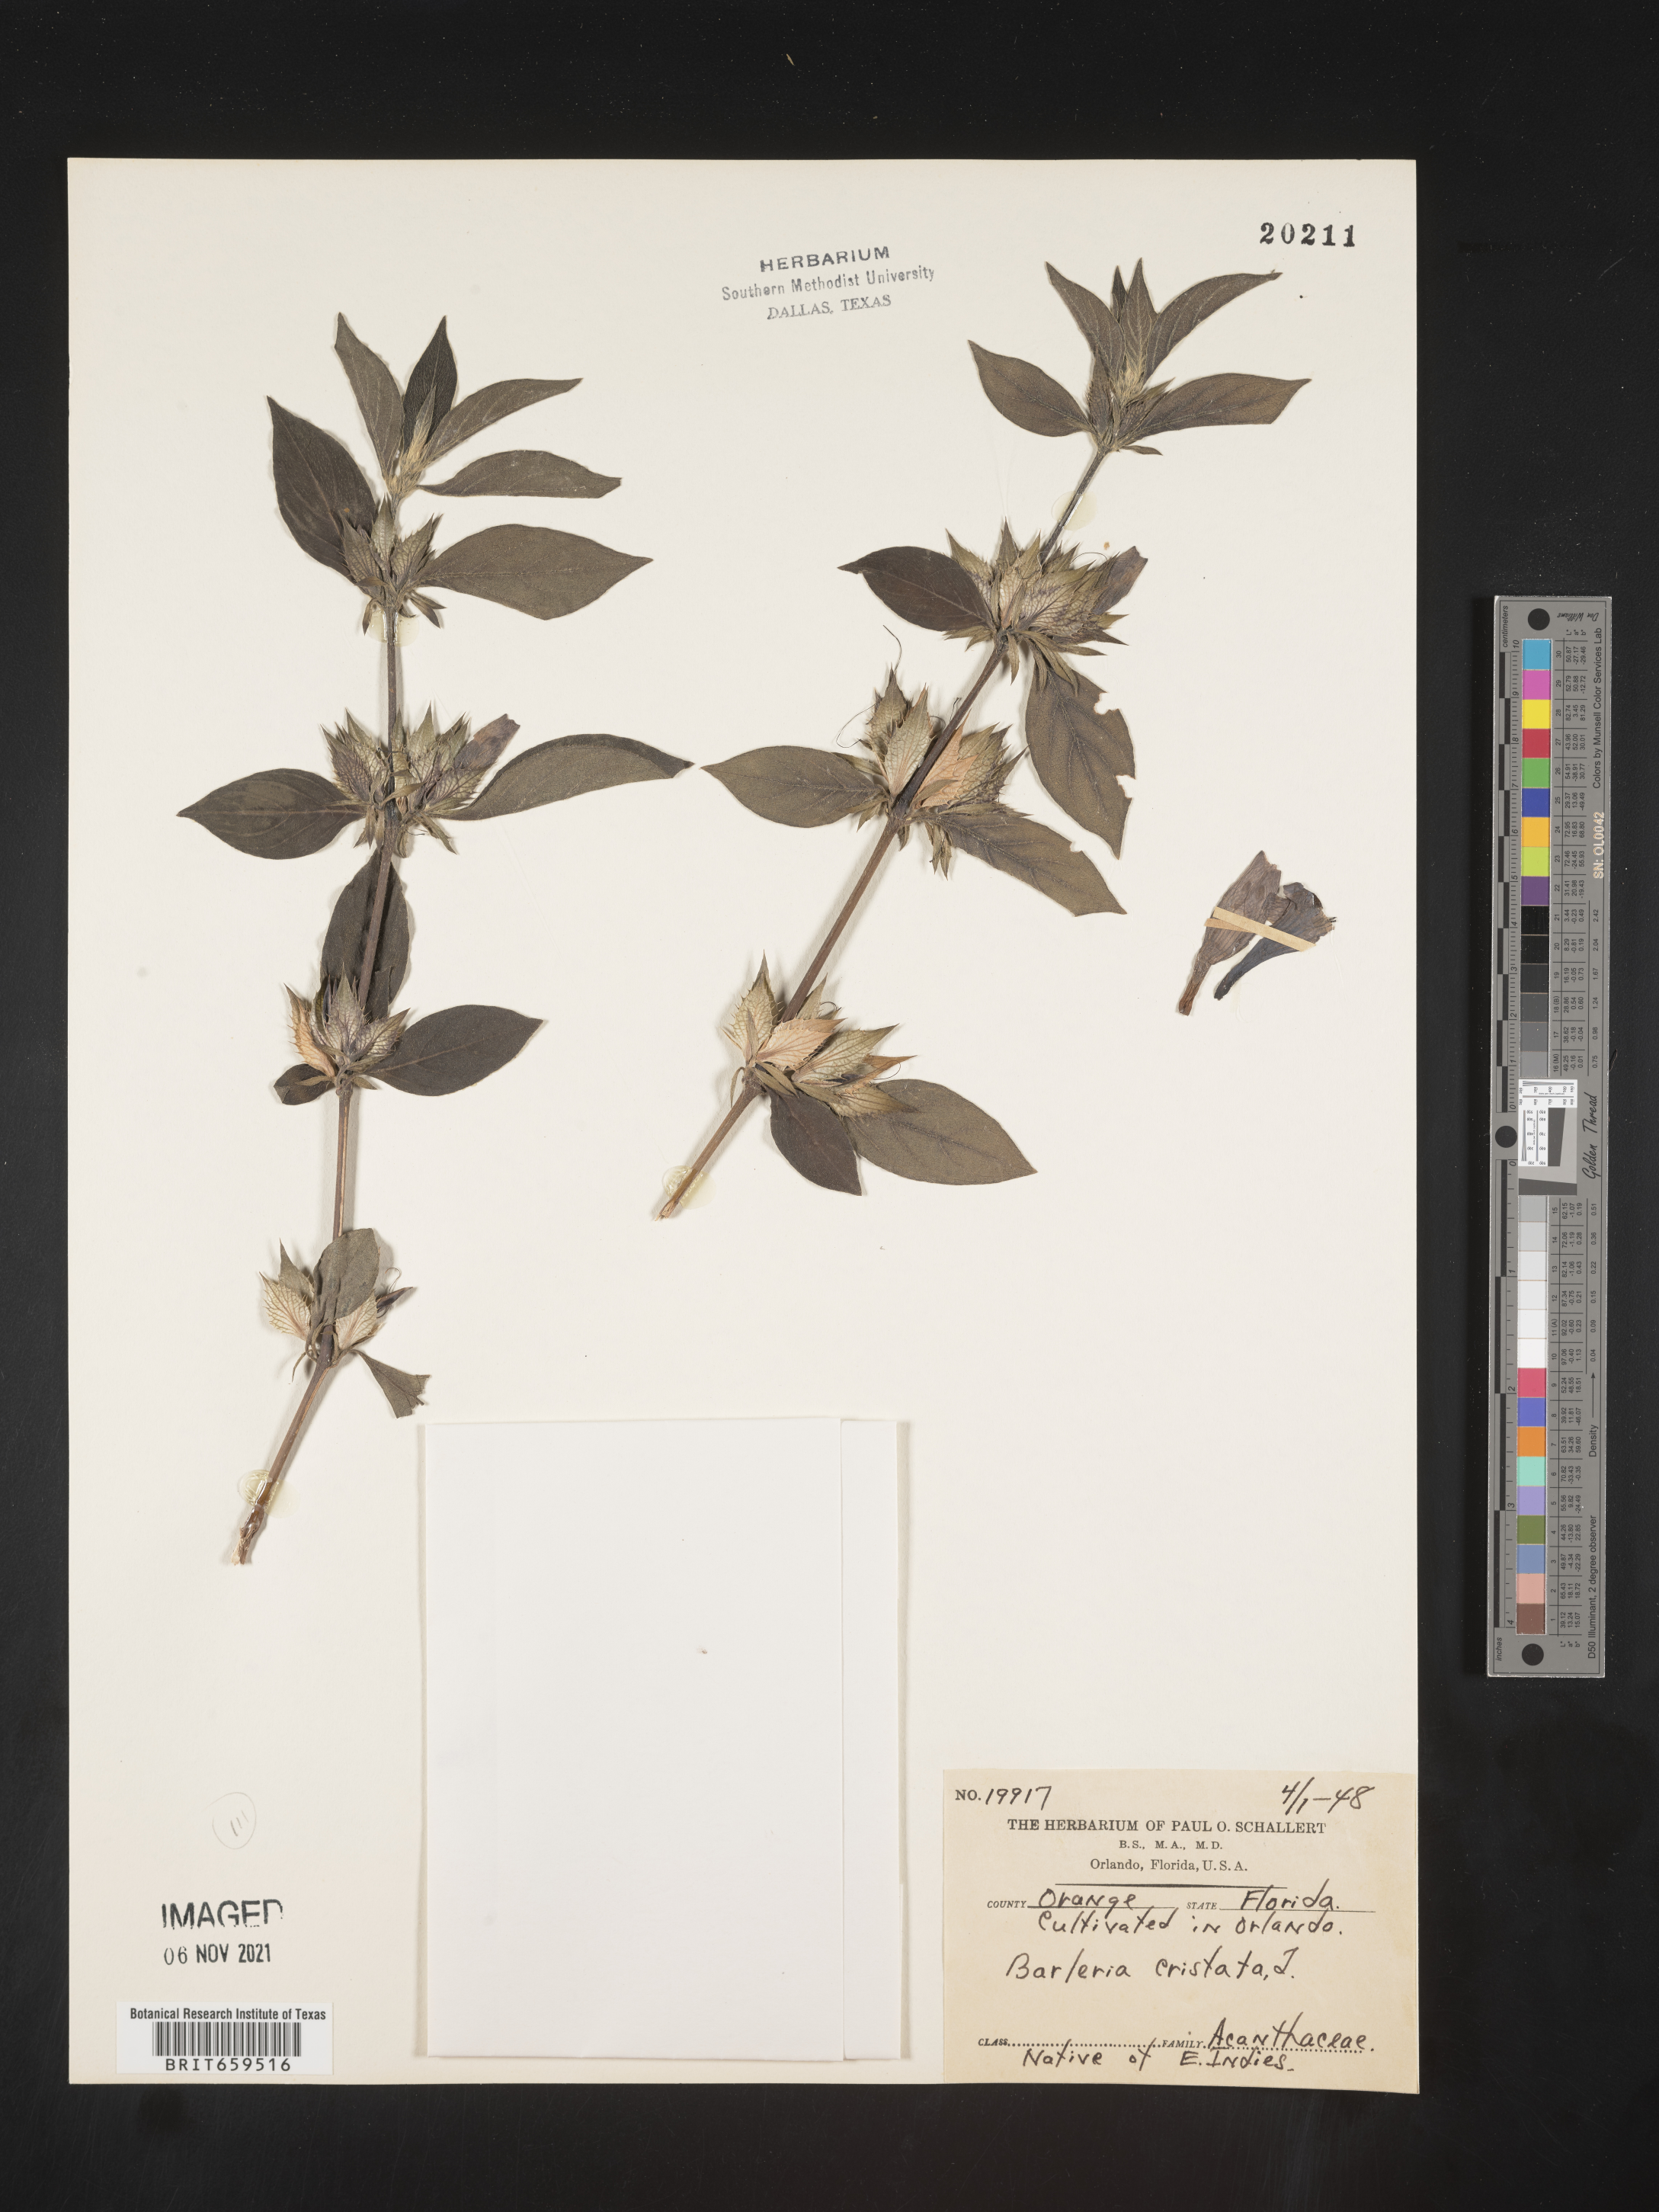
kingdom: Plantae
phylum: Tracheophyta
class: Magnoliopsida
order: Lamiales
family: Acanthaceae
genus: Barleria
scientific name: Barleria
